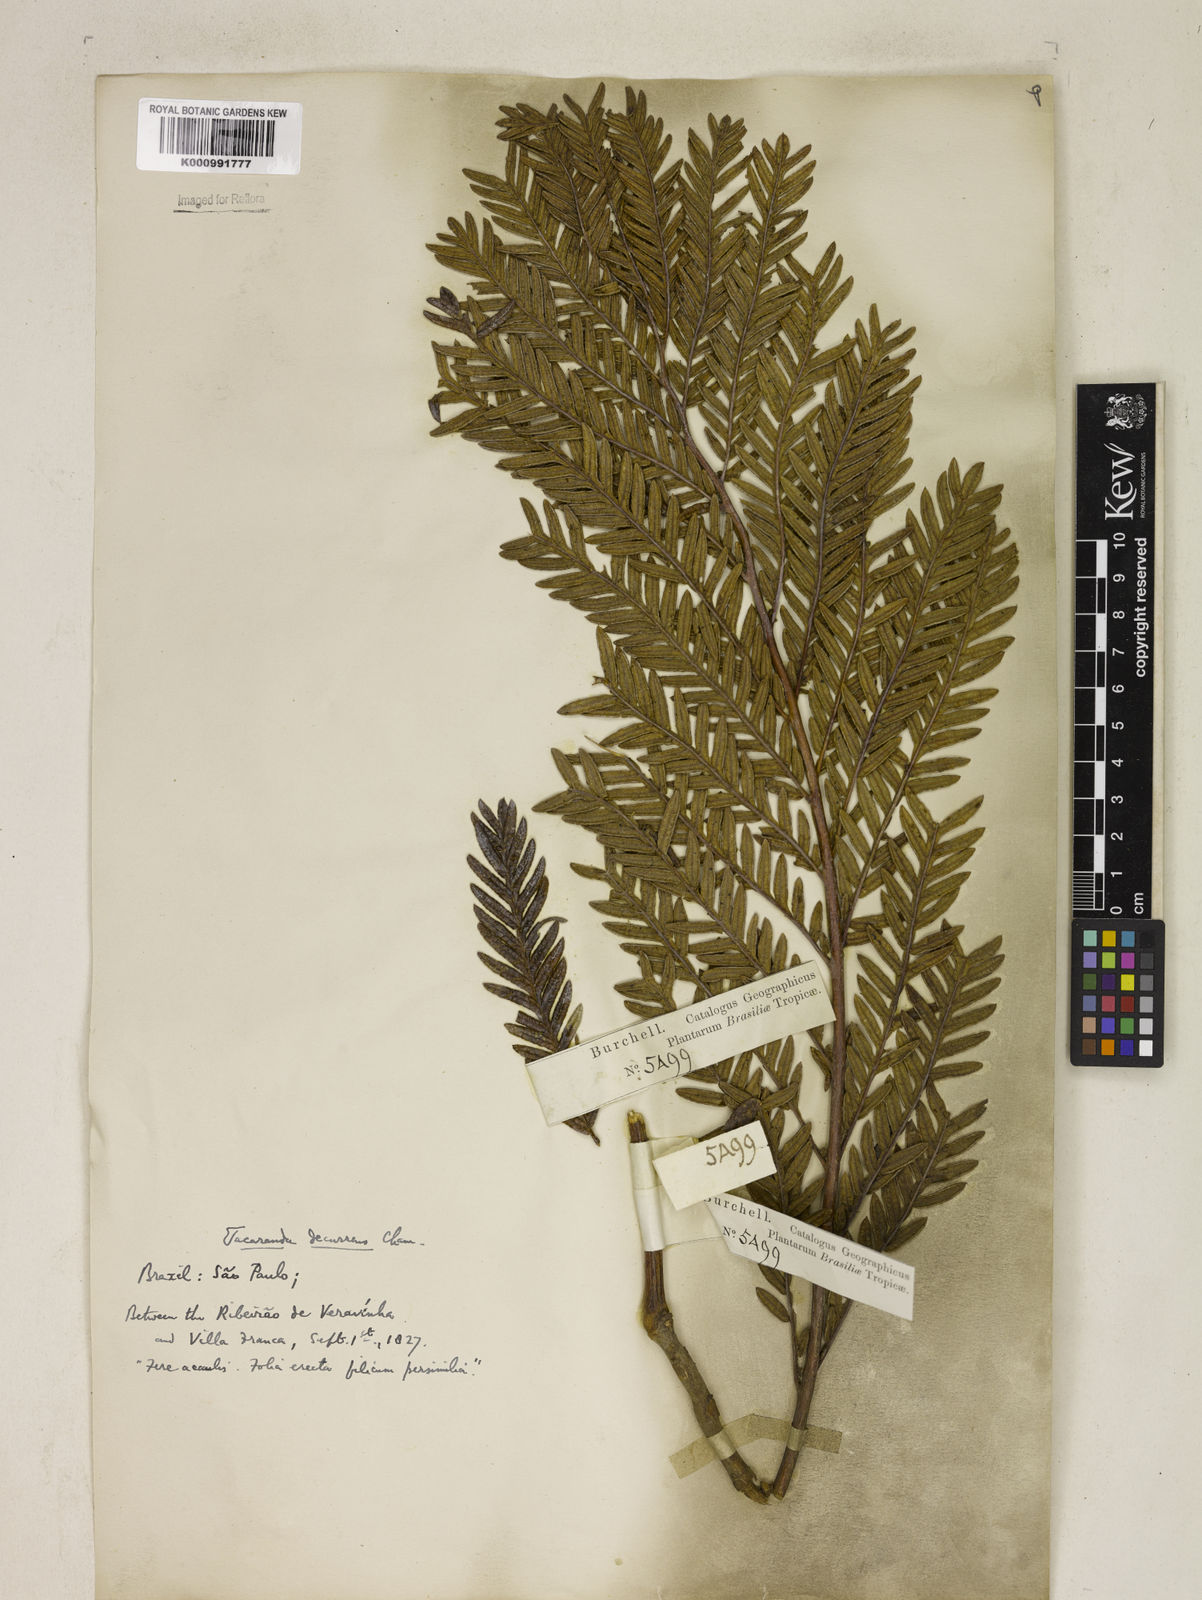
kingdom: Plantae
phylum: Tracheophyta
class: Magnoliopsida
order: Lamiales
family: Bignoniaceae
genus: Jacaranda
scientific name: Jacaranda decurrens
